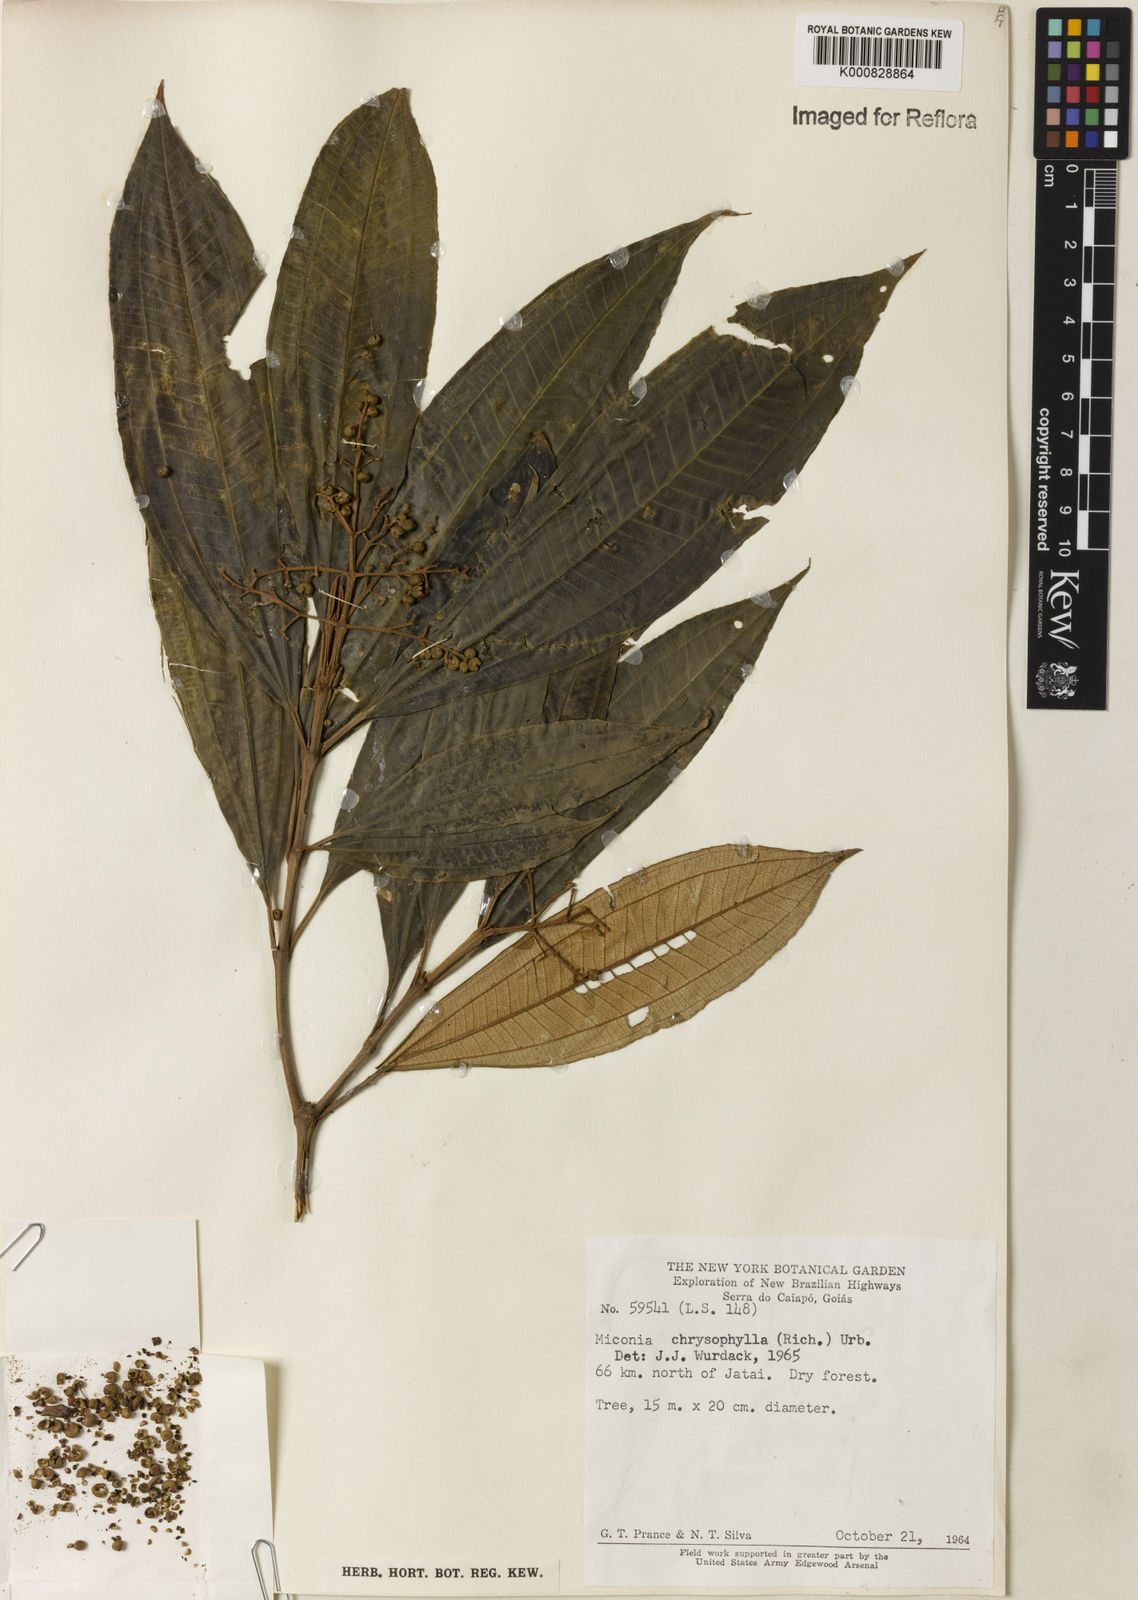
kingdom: Plantae
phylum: Tracheophyta
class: Magnoliopsida
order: Myrtales
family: Melastomataceae
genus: Miconia
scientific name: Miconia chrysophylla
